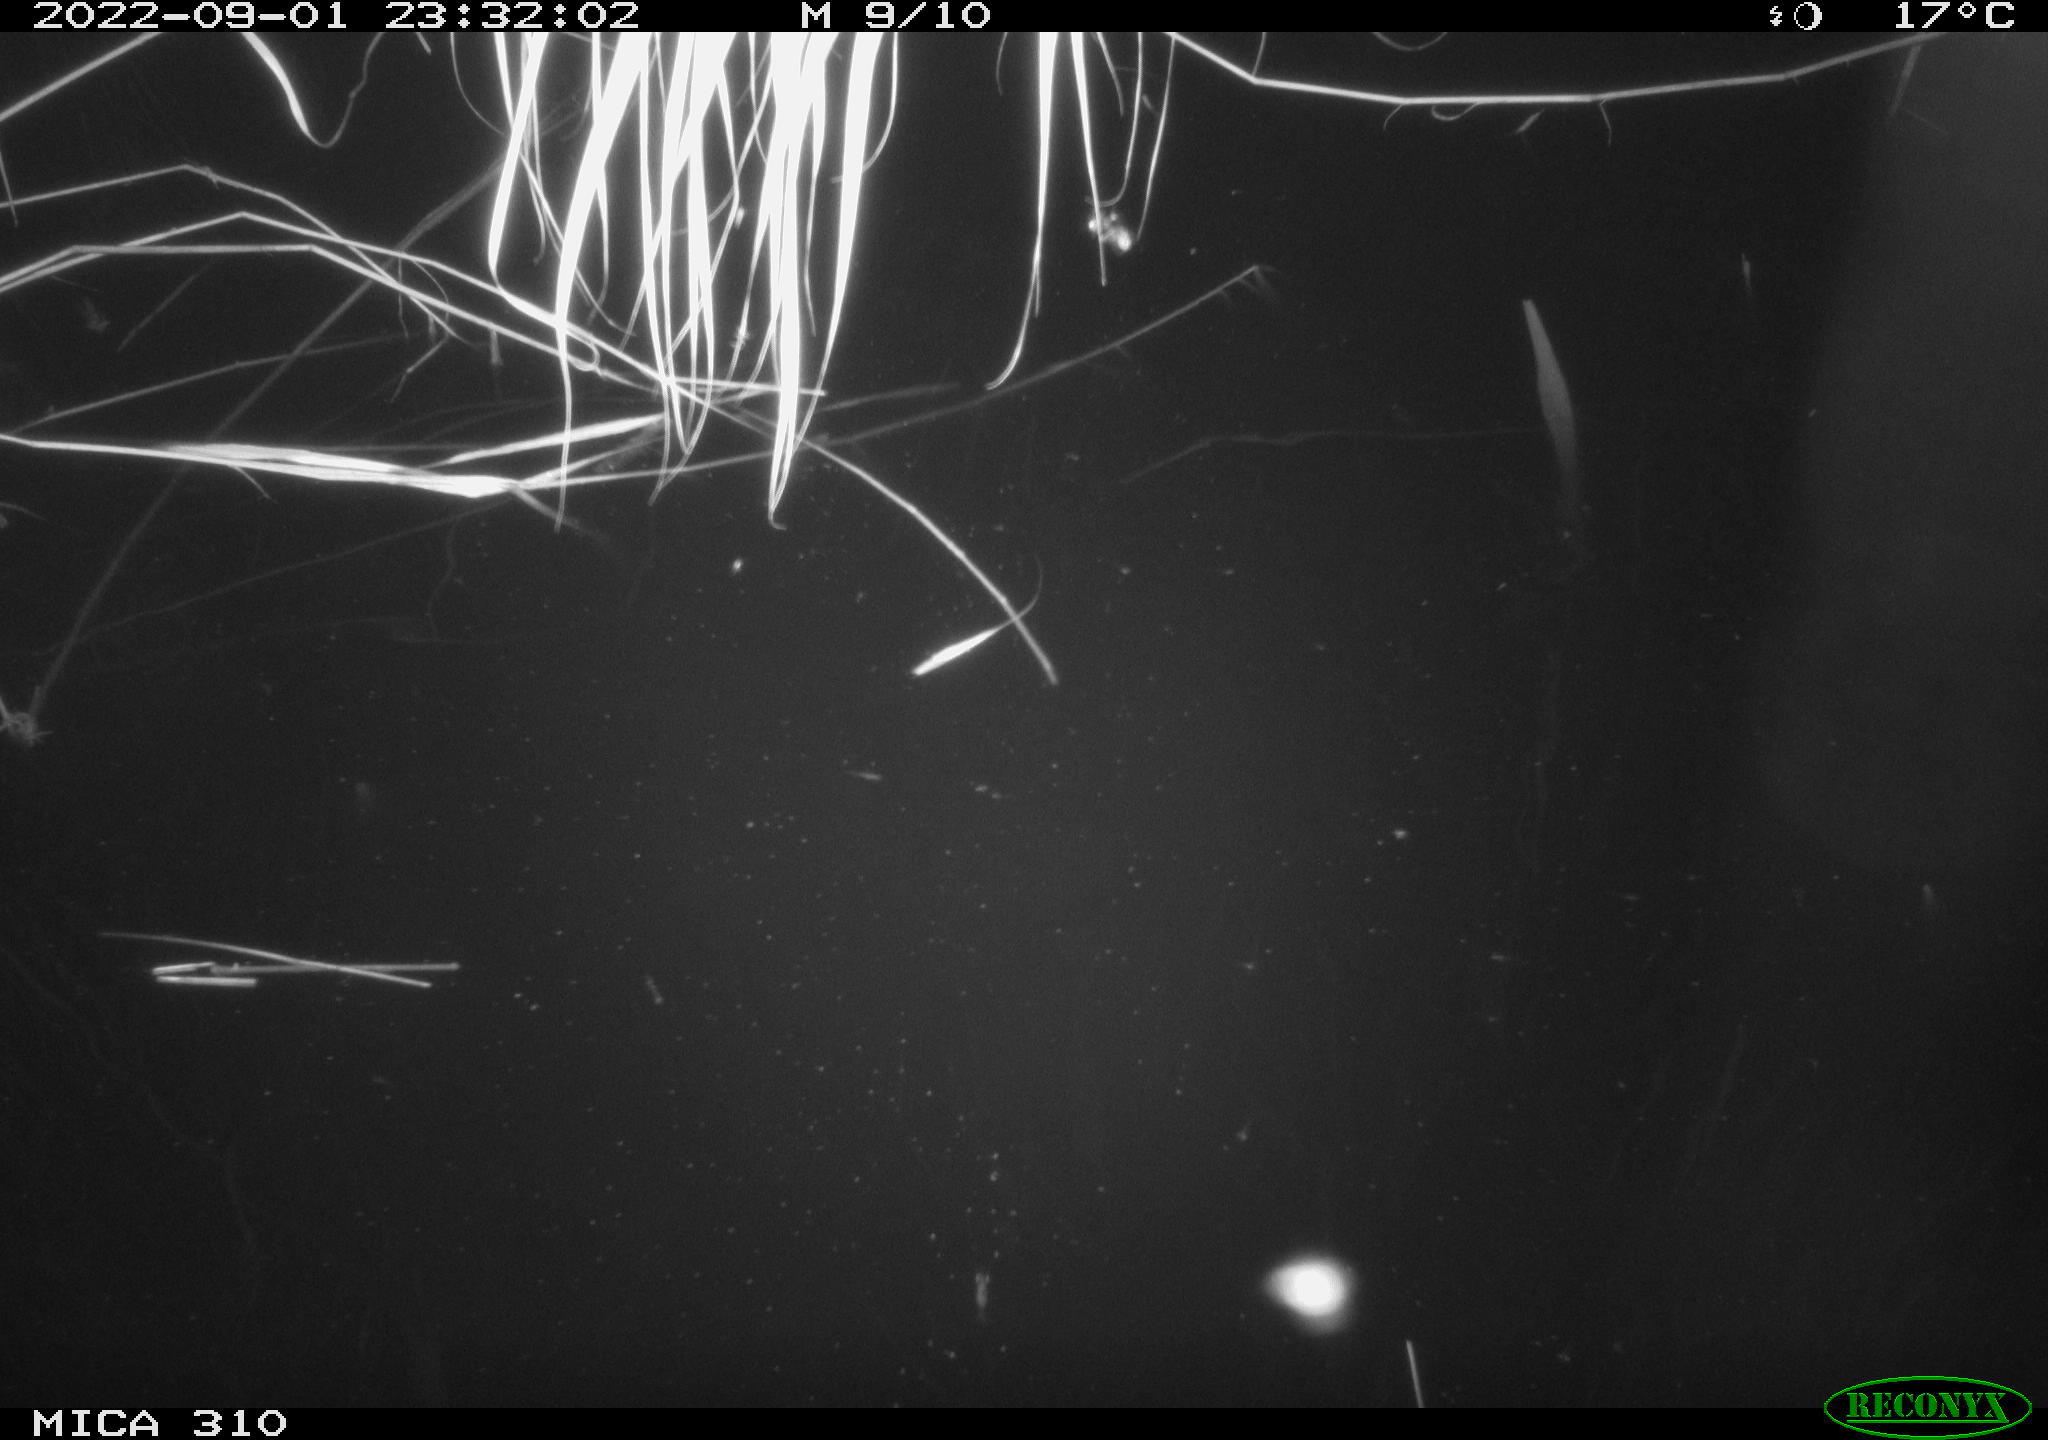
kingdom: Animalia
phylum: Chordata
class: Aves
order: Anseriformes
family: Anatidae
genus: Anas
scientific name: Anas platyrhynchos
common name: Mallard
